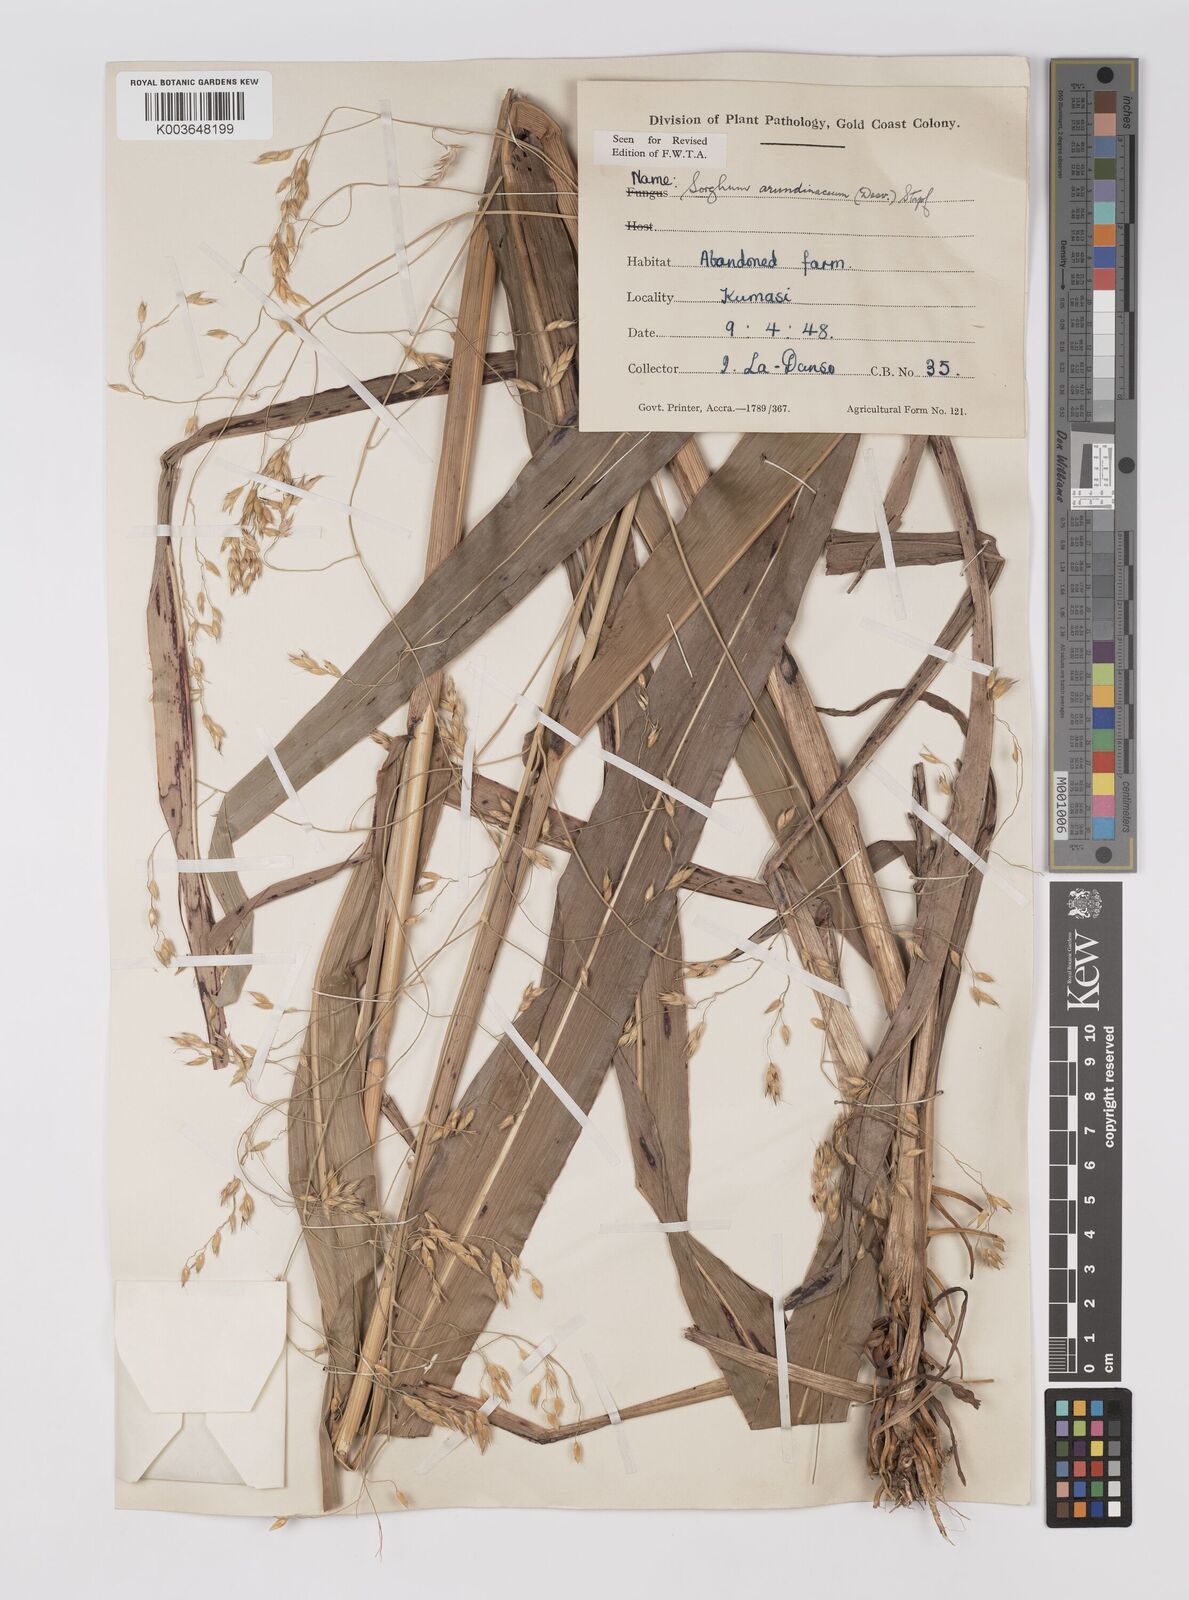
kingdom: Plantae
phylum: Tracheophyta
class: Liliopsida
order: Poales
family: Poaceae
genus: Sorghum
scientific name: Sorghum arundinaceum
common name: Sorghum
